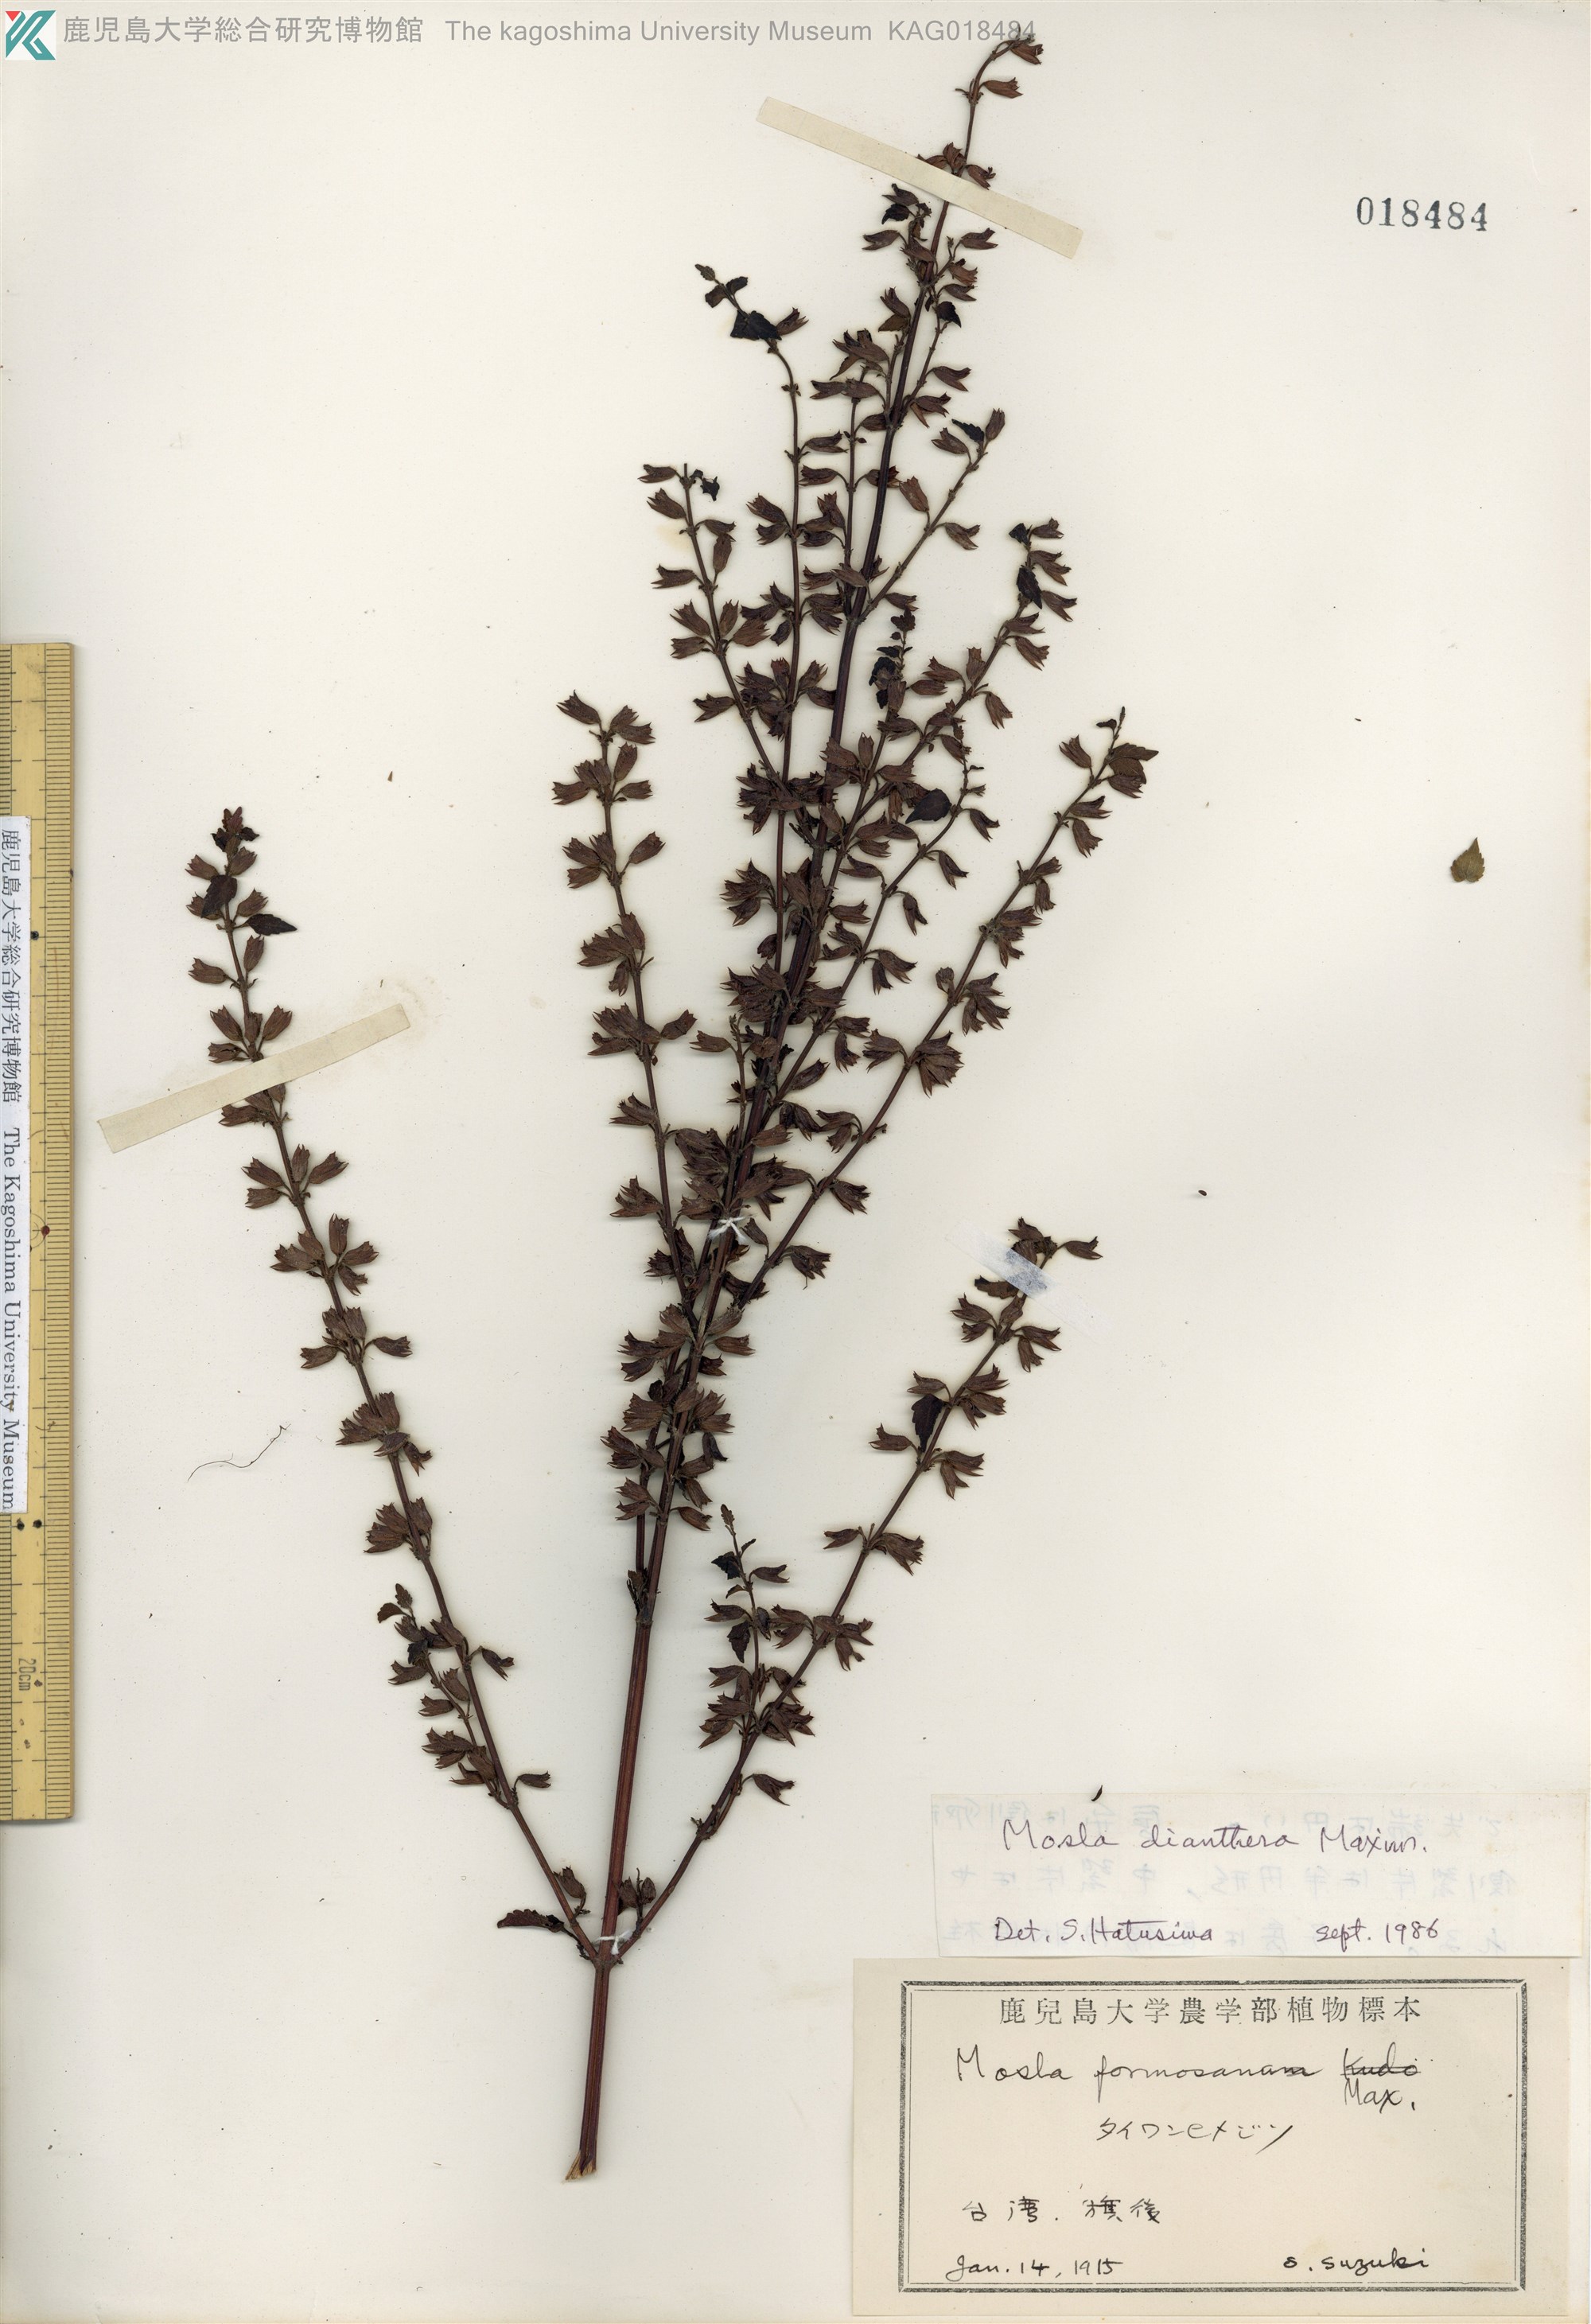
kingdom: Plantae
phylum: Tracheophyta
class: Magnoliopsida
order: Lamiales
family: Lamiaceae
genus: Mosla
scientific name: Mosla dianthera
